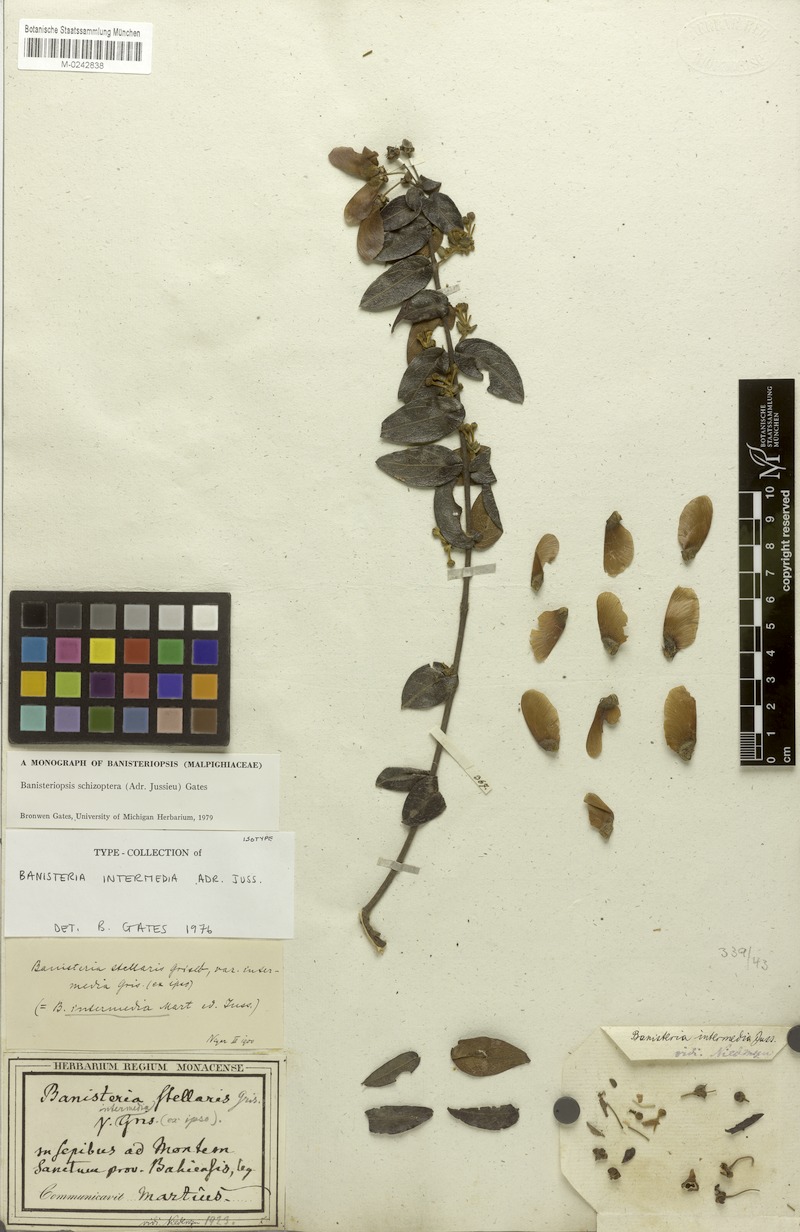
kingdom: Plantae
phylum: Tracheophyta
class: Magnoliopsida
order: Malpighiales
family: Malpighiaceae
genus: Banisteriopsis
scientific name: Banisteriopsis schizoptera
